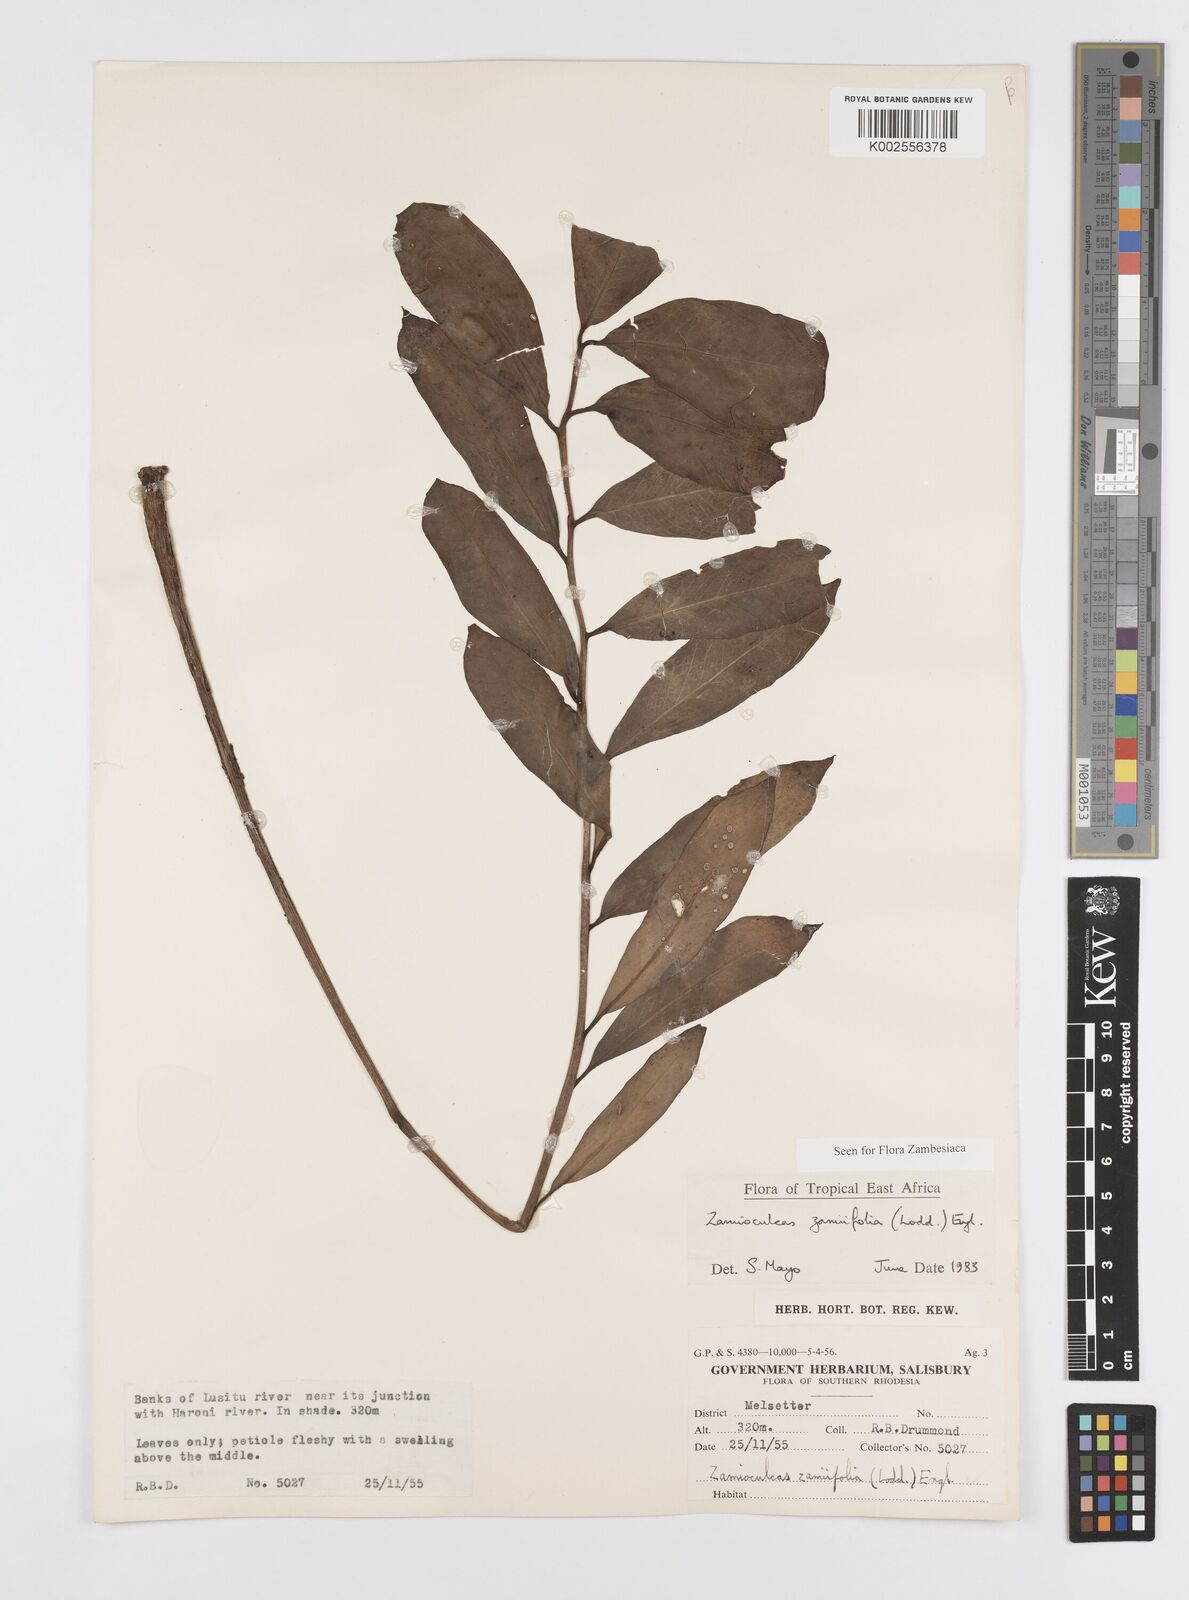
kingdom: Plantae
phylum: Tracheophyta
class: Liliopsida
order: Alismatales
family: Araceae
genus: Zamioculcas
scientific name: Zamioculcas zamiifolia
